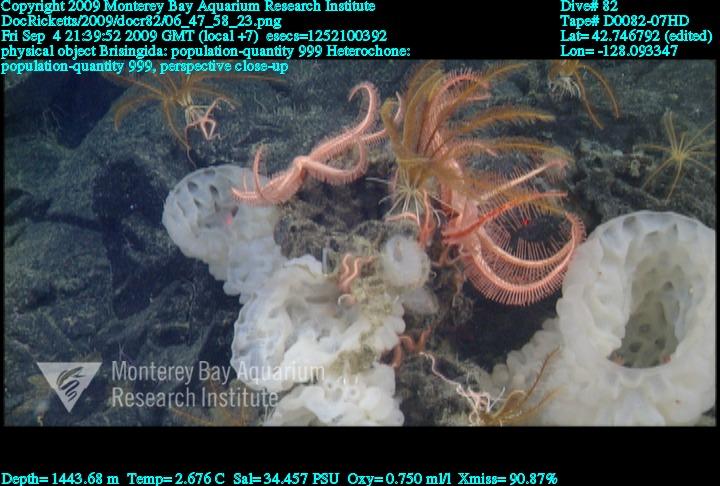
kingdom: Animalia
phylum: Porifera
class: Hexactinellida
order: Sceptrulophora
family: Aphrocallistidae
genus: Heterochone
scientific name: Heterochone
